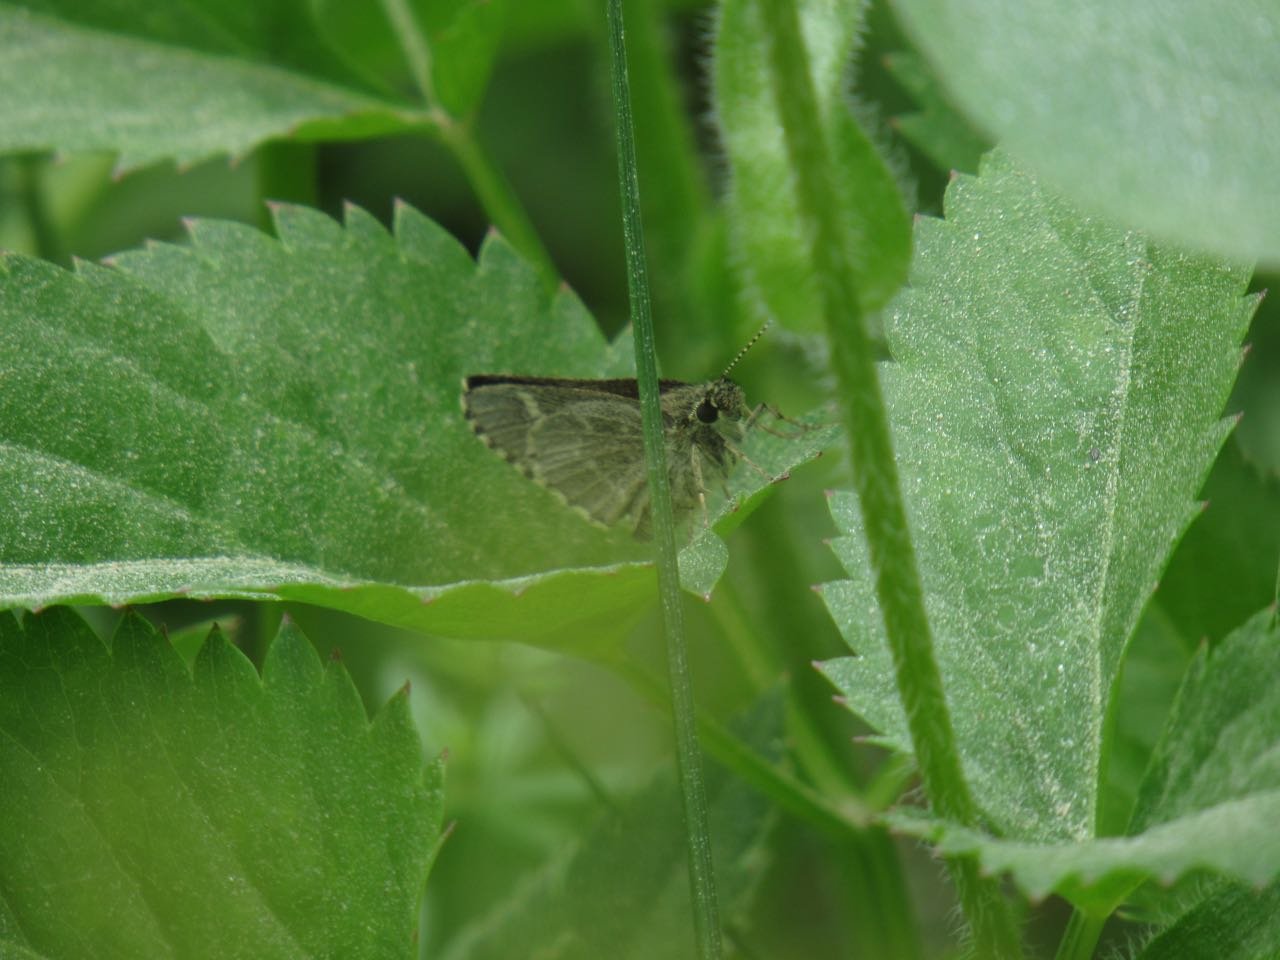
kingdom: Animalia
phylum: Arthropoda
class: Insecta
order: Lepidoptera
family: Hesperiidae
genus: Mastor
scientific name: Mastor hegon
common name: Pepper and Salt Skipper
